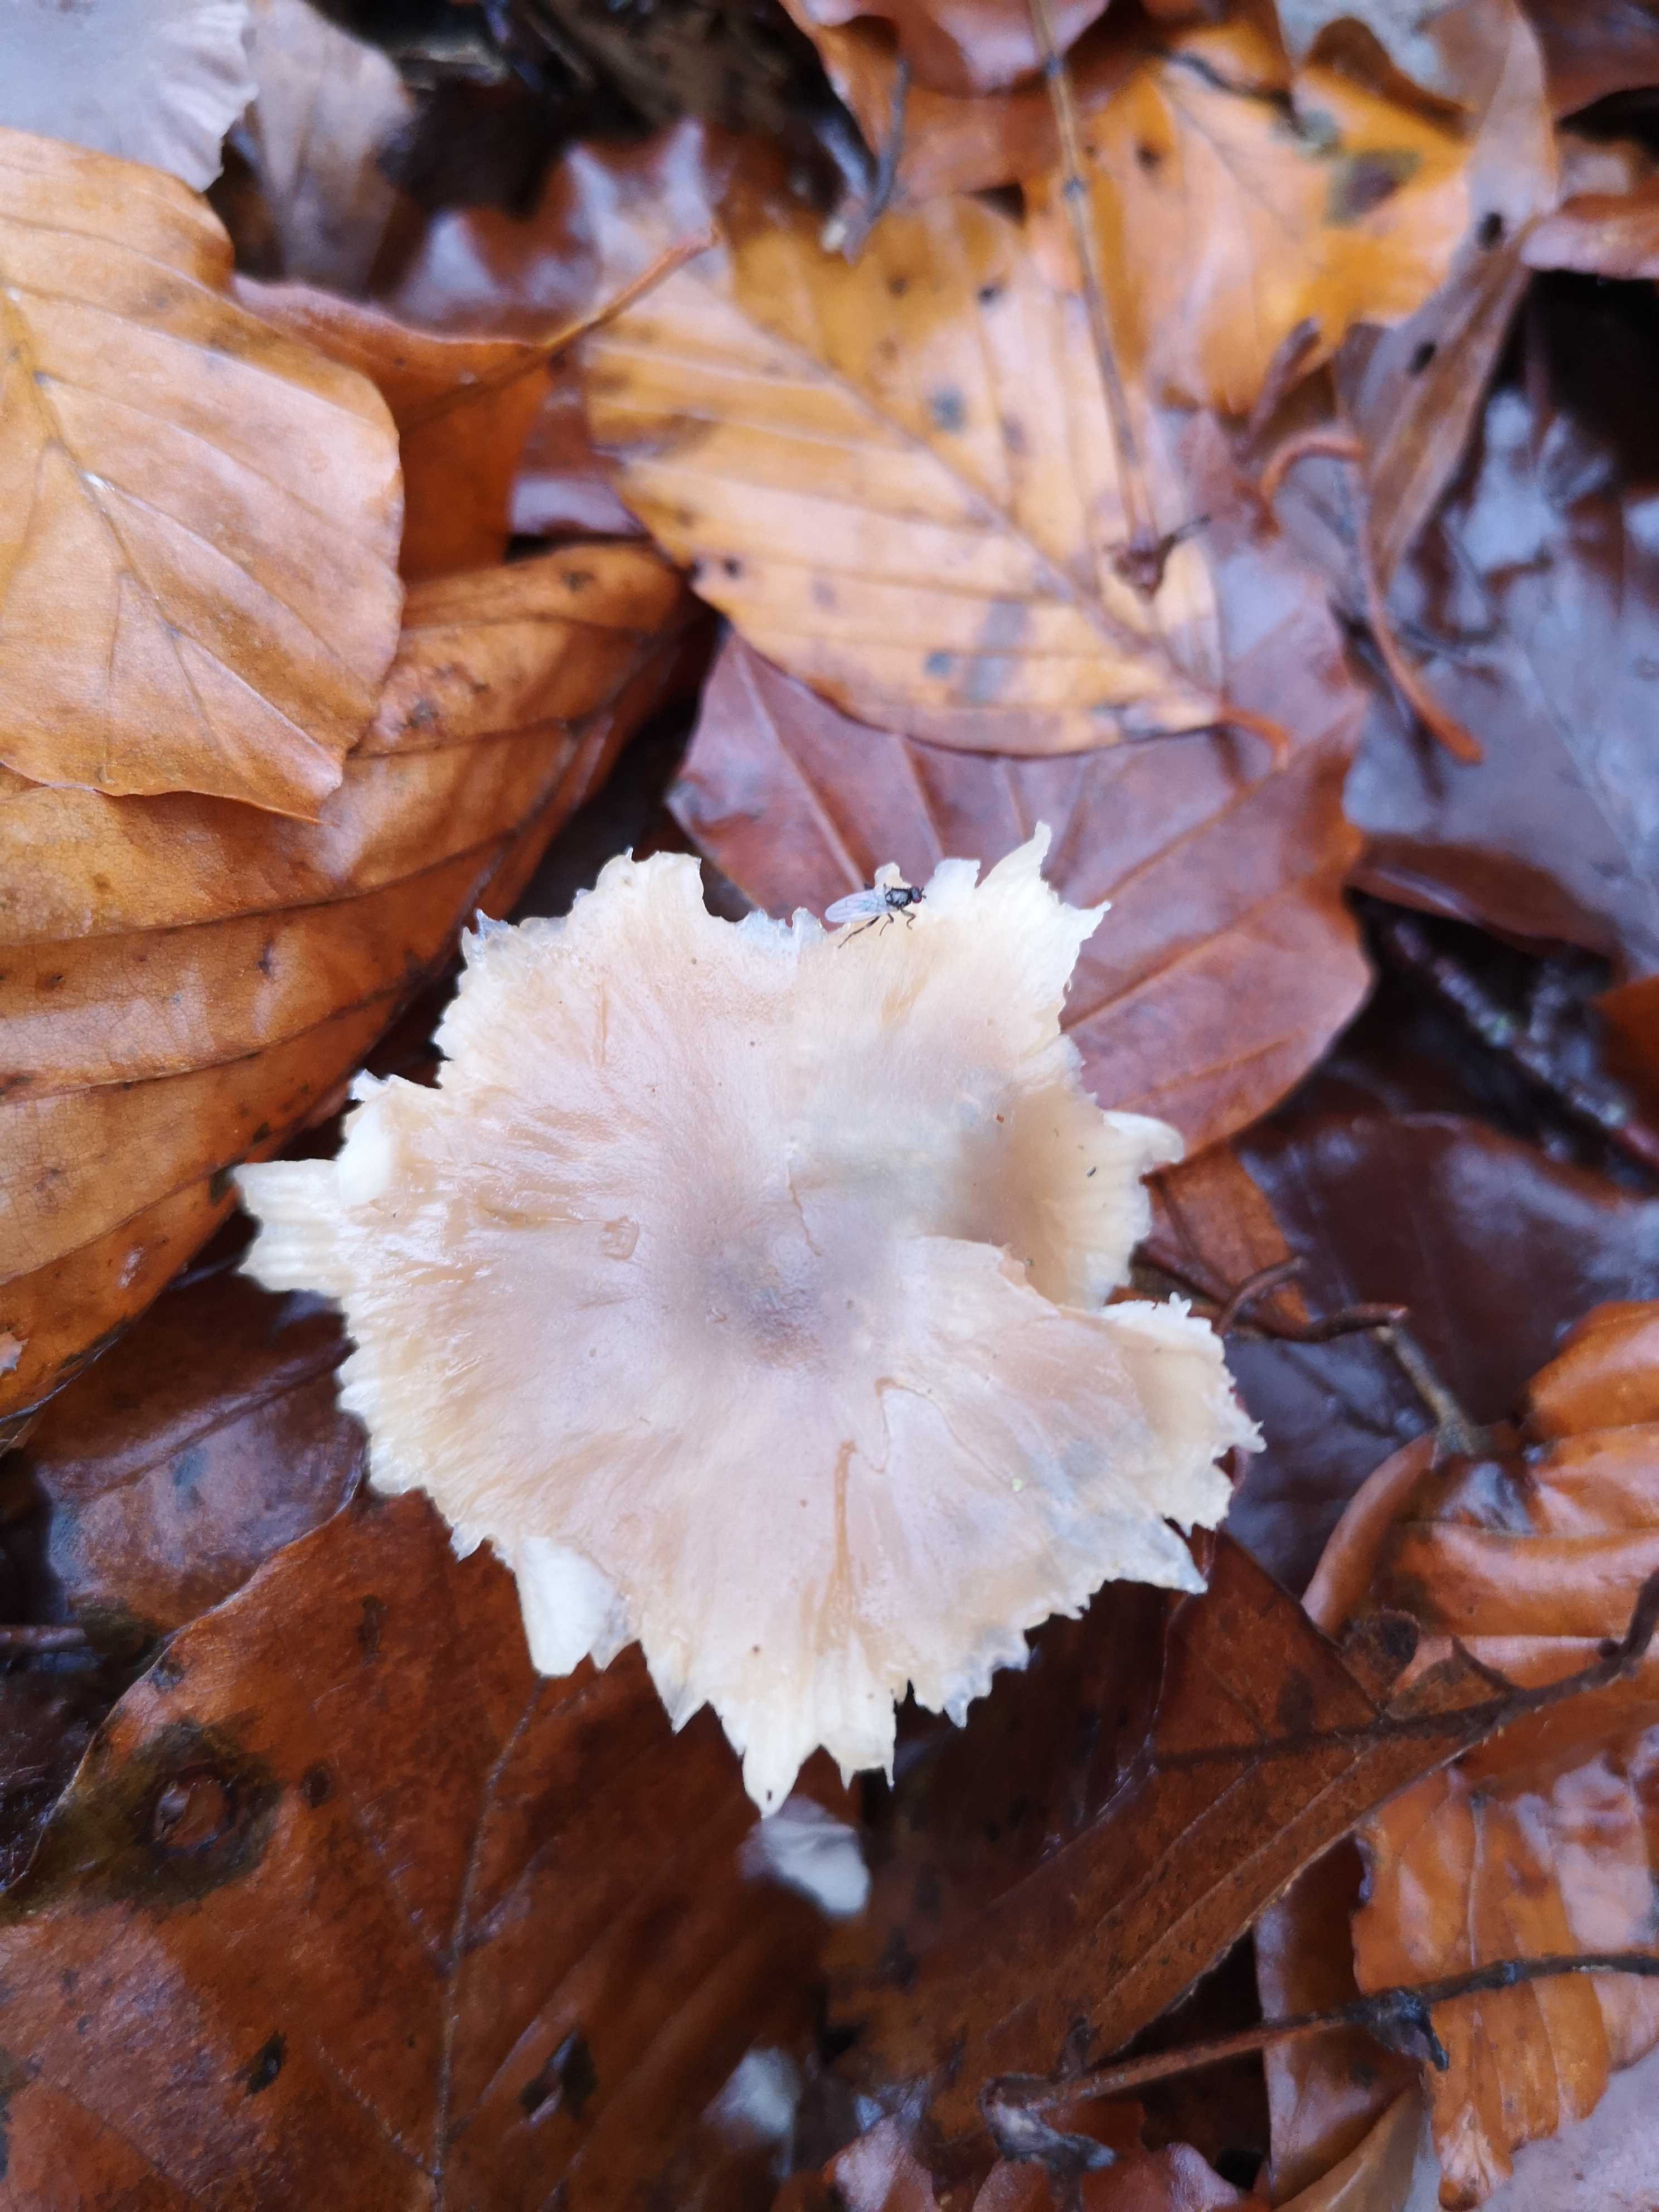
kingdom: Fungi
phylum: Basidiomycota
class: Agaricomycetes
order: Agaricales
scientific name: Agaricales
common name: champignonordenen
